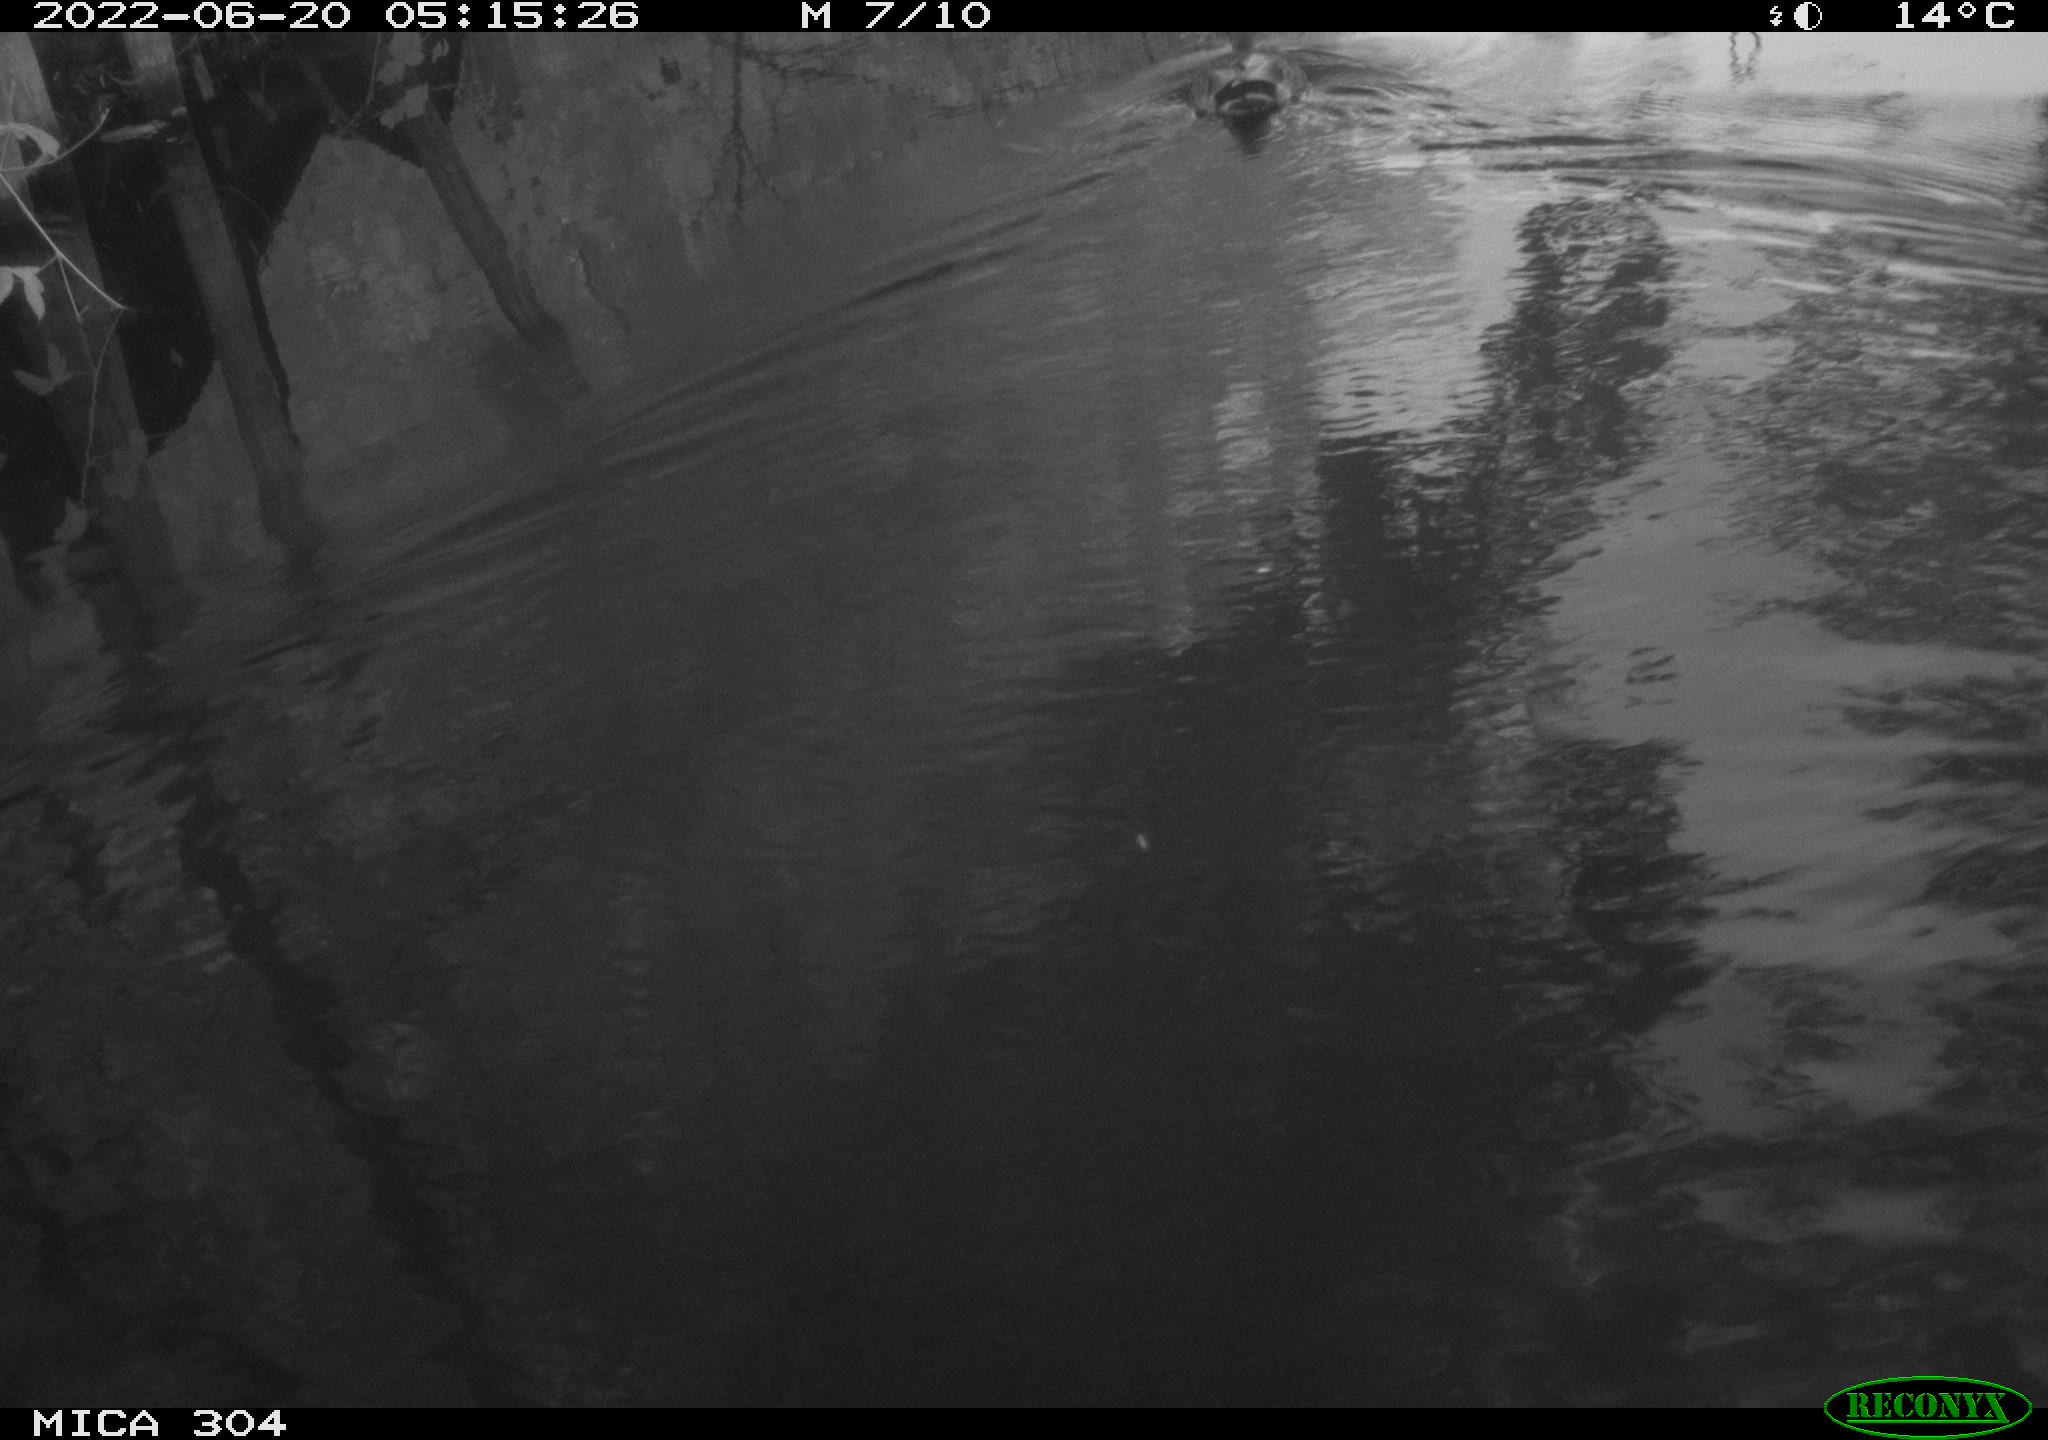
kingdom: Animalia
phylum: Chordata
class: Aves
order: Anseriformes
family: Anatidae
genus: Mareca
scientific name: Mareca strepera
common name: Gadwall
